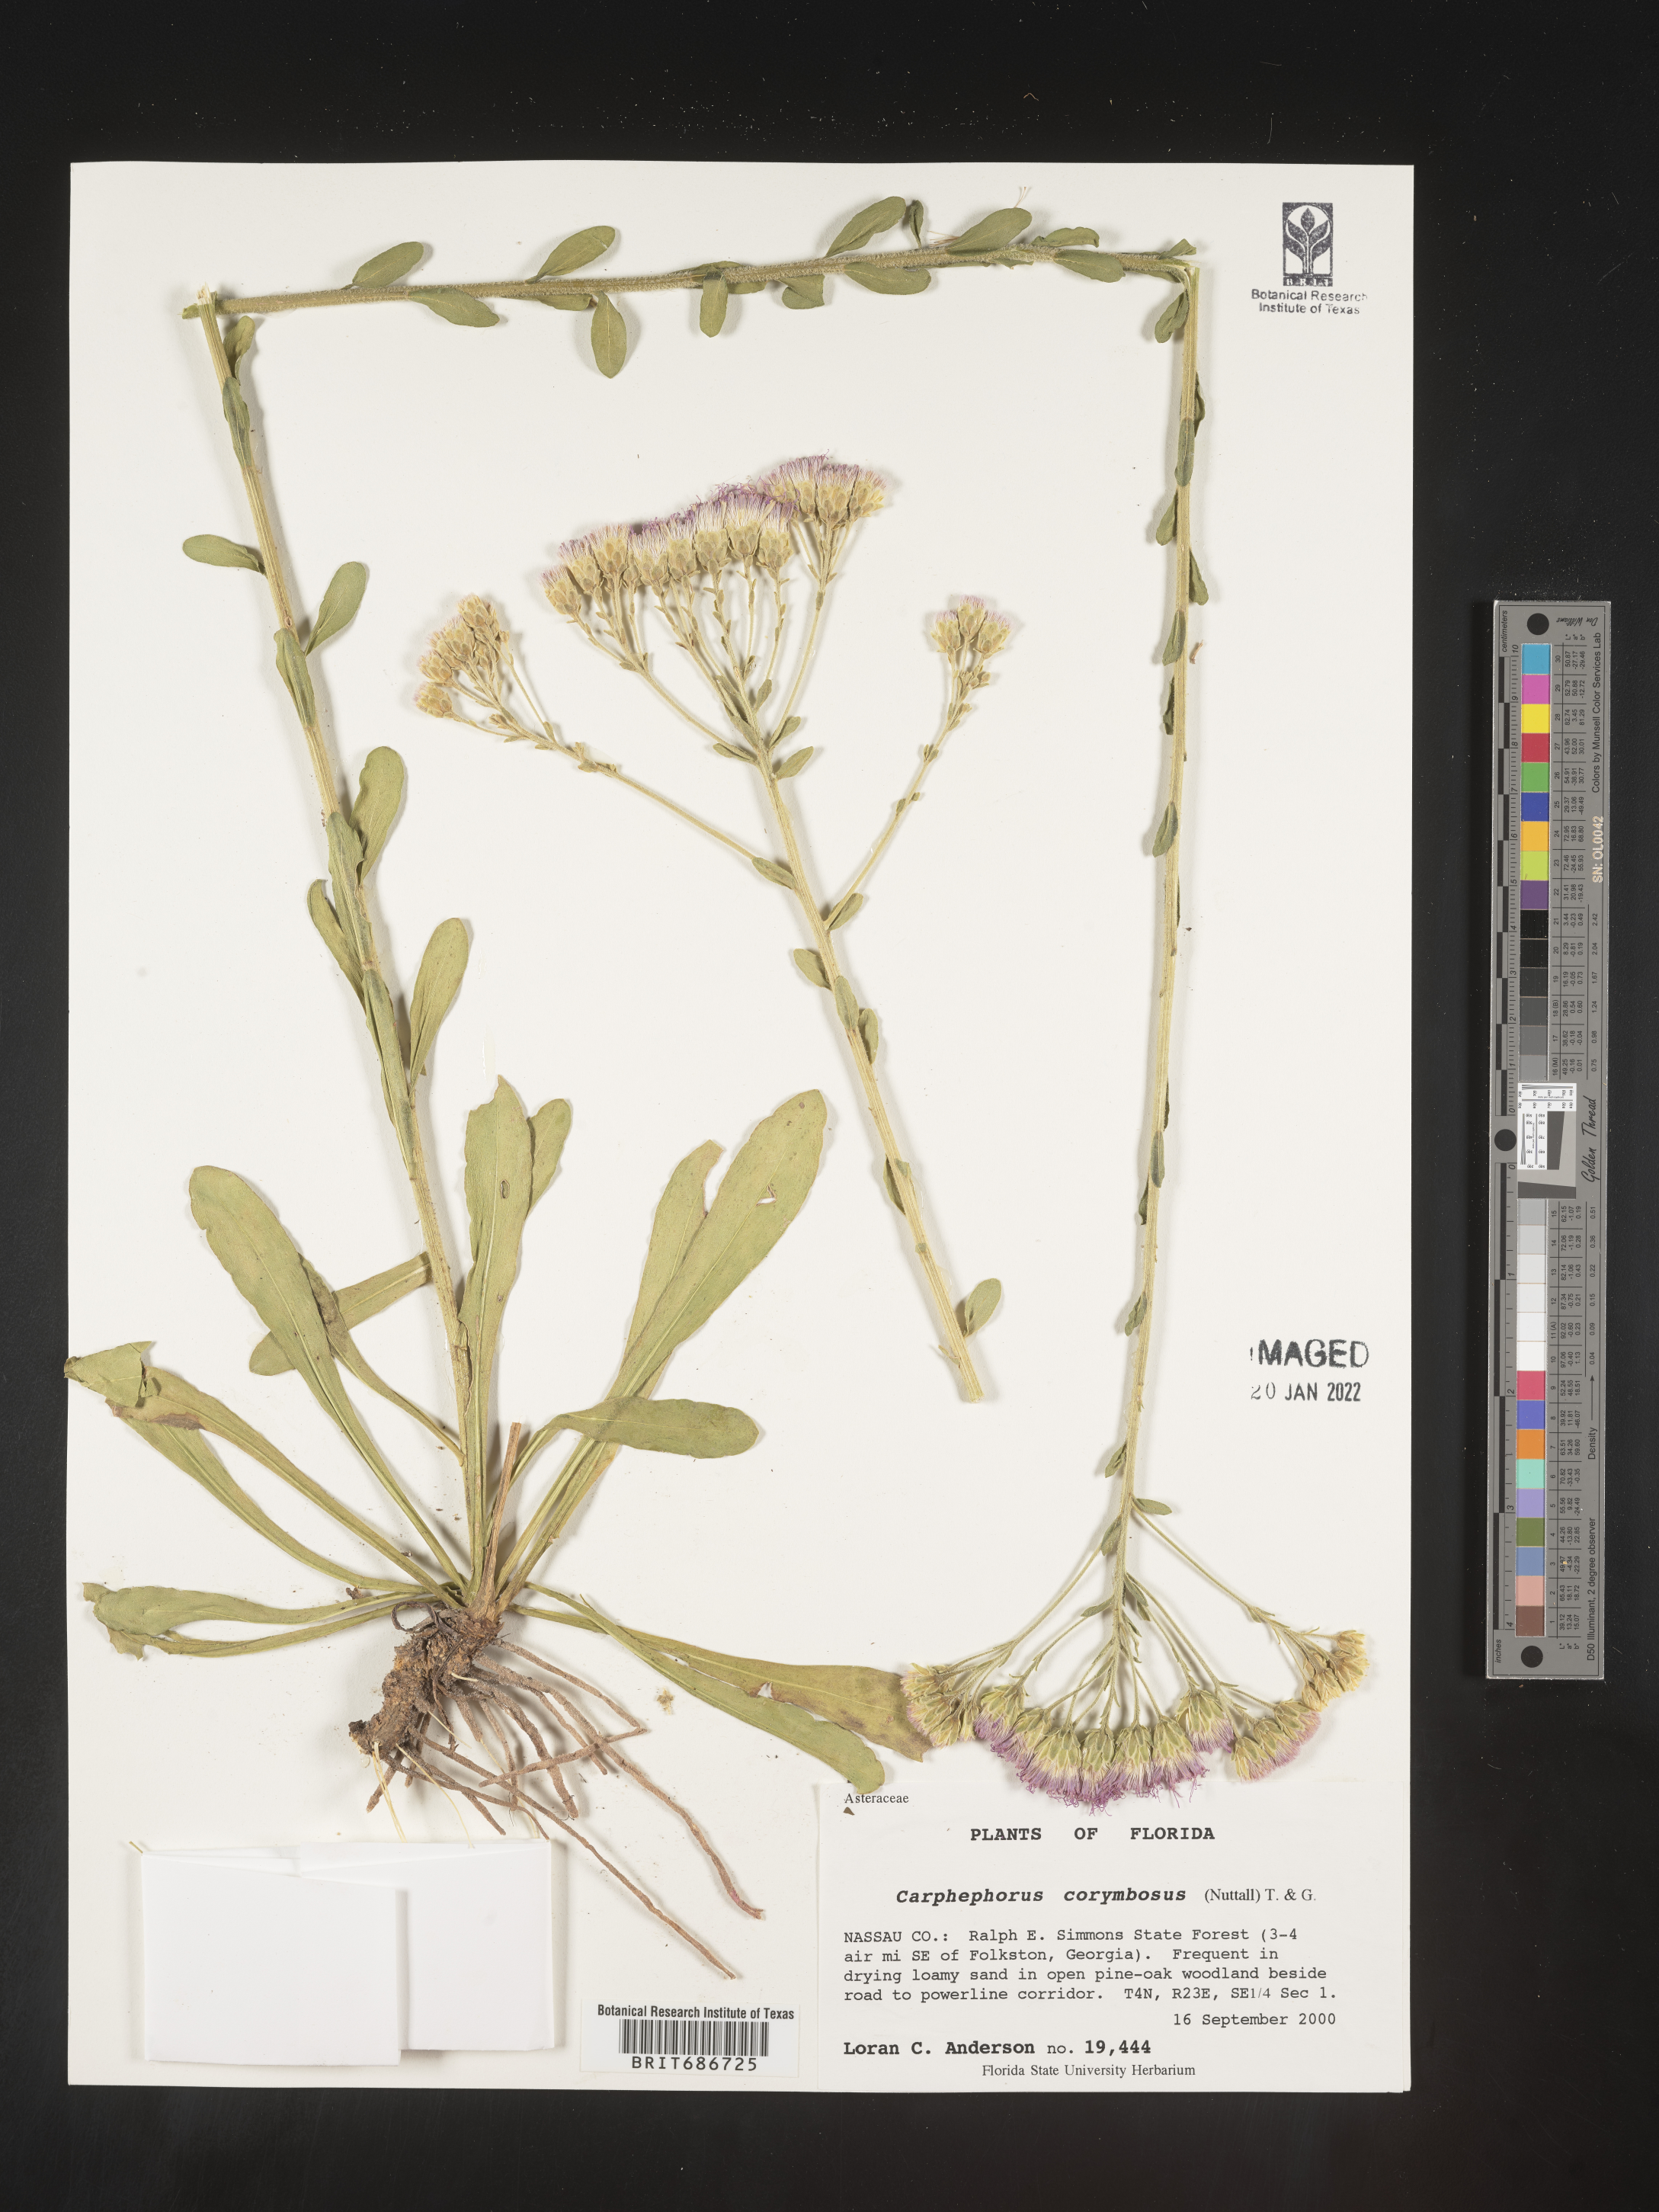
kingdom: Plantae
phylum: Tracheophyta
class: Magnoliopsida
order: Asterales
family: Asteraceae
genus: Carphephorus
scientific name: Carphephorus corymbosus
